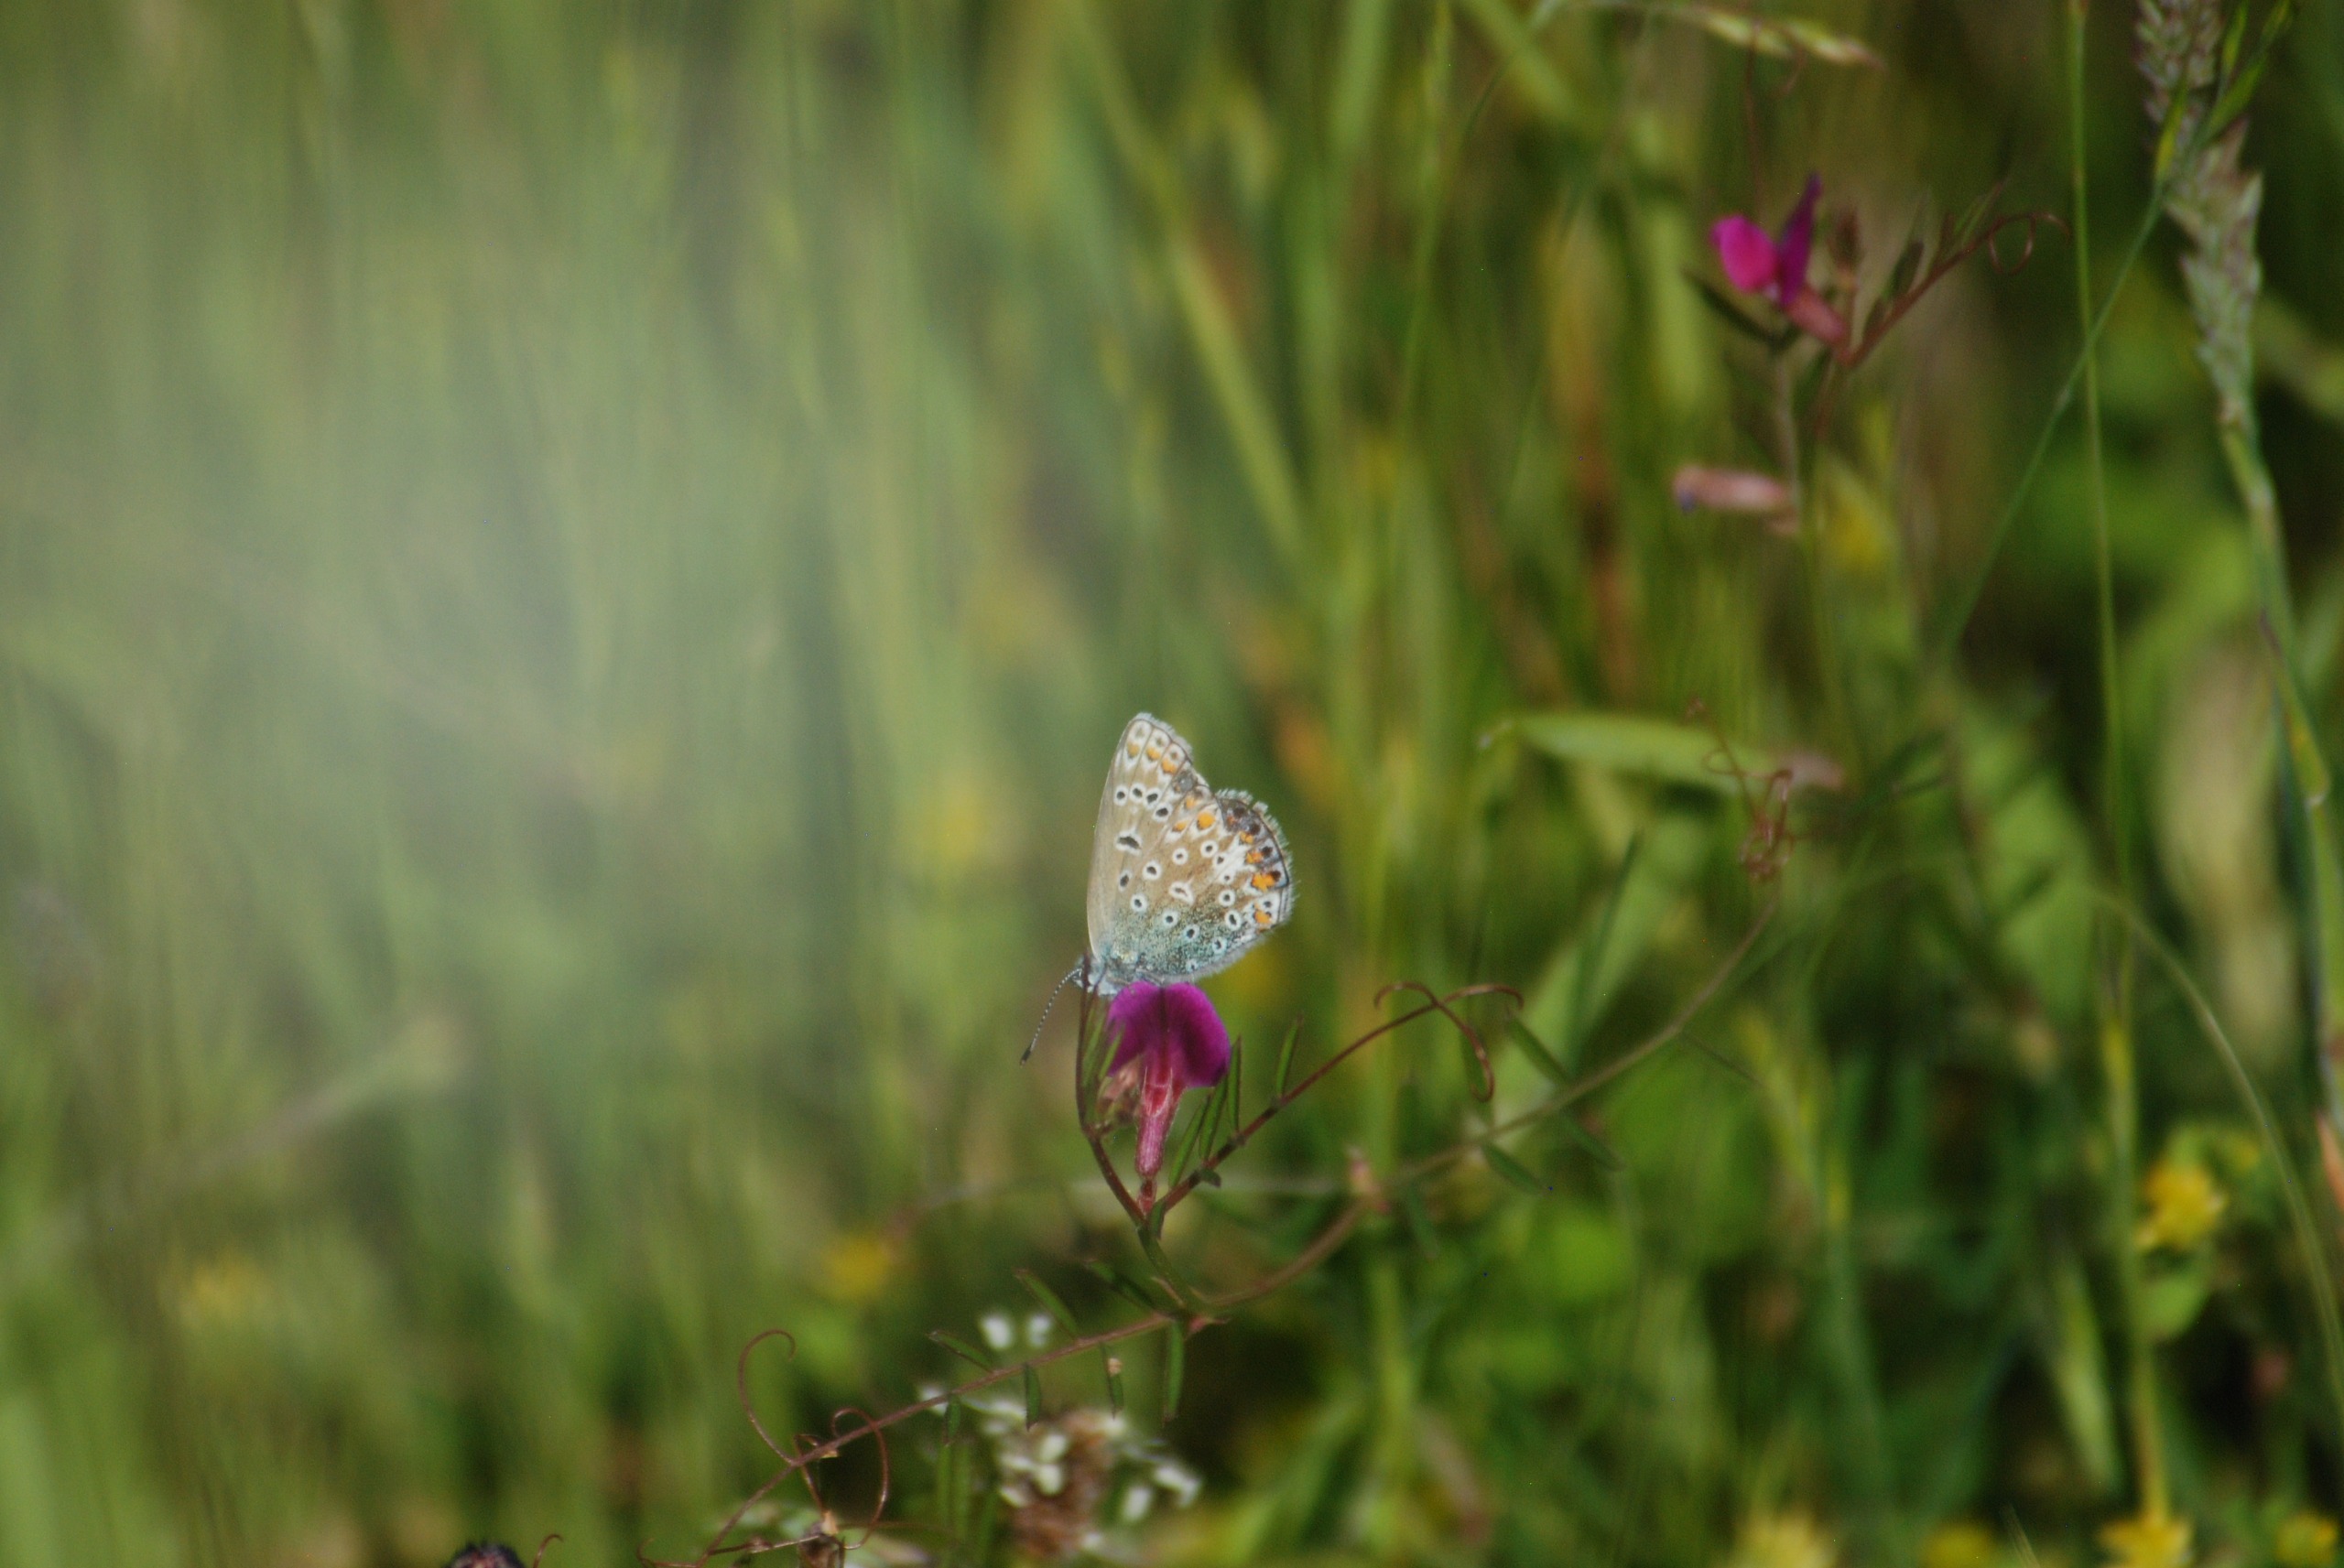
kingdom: Animalia
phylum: Arthropoda
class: Insecta
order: Lepidoptera
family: Lycaenidae
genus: Polyommatus
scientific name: Polyommatus icarus
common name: Almindelig blåfugl
